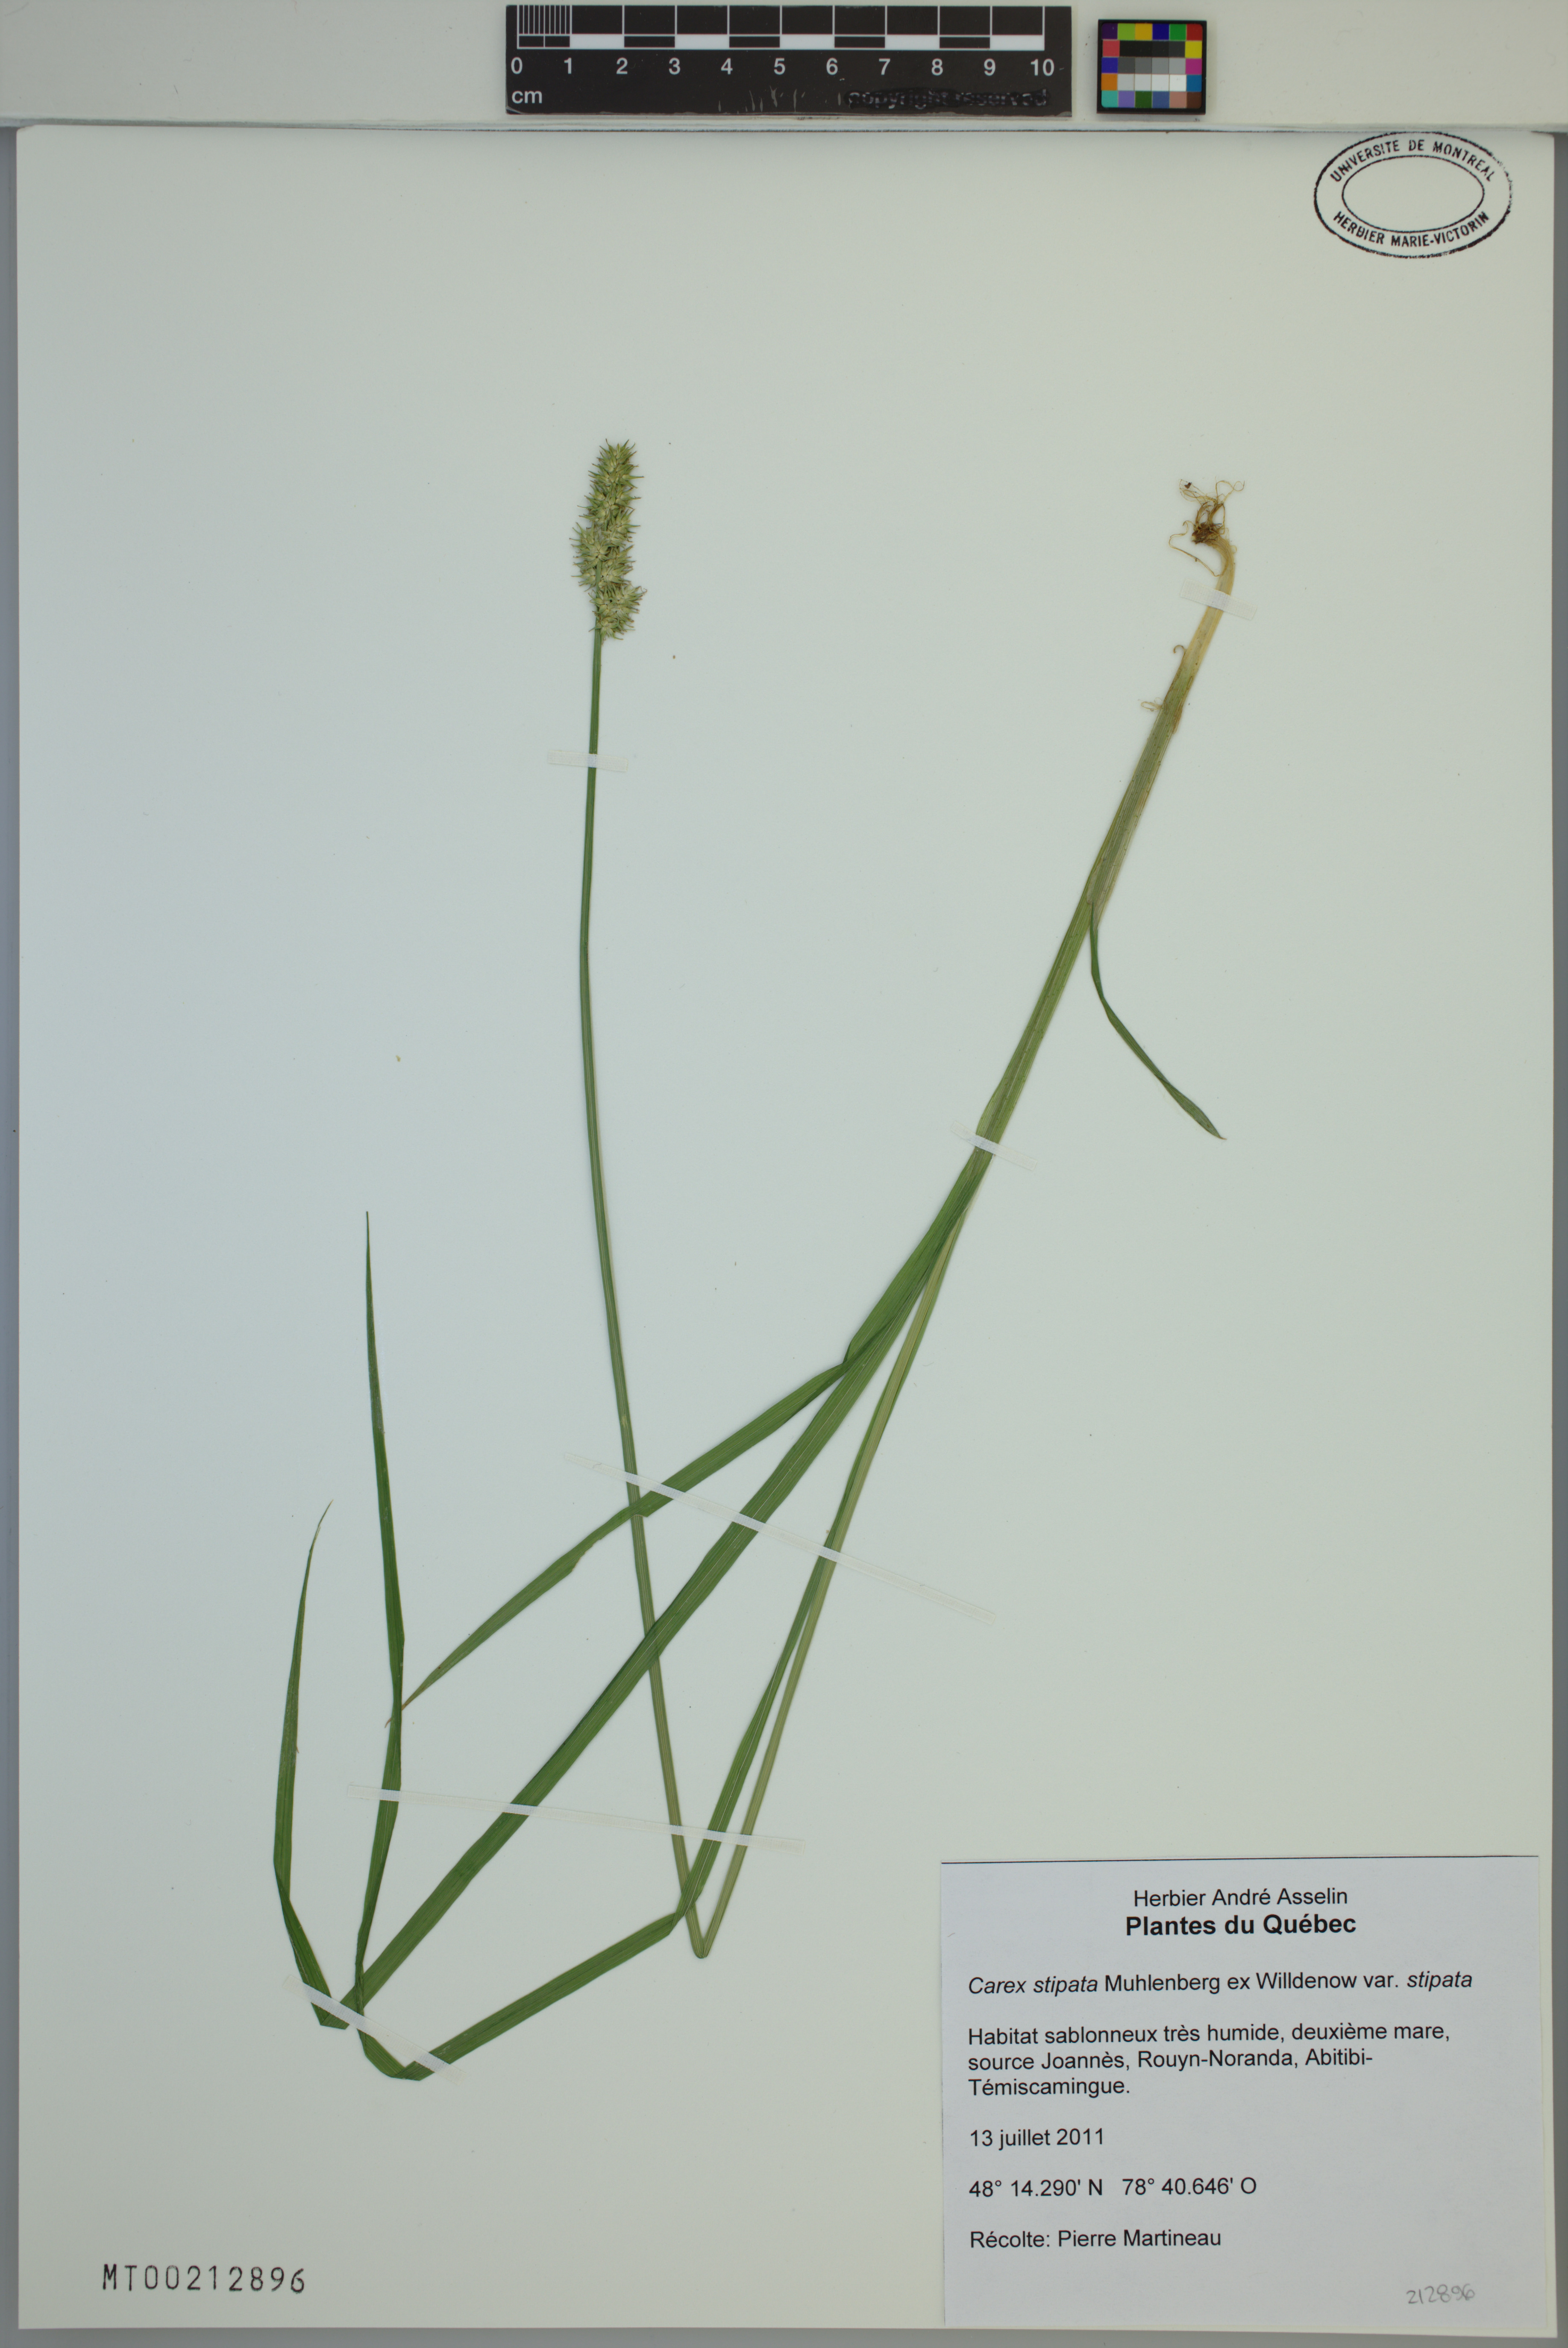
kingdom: Plantae
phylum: Tracheophyta
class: Liliopsida
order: Poales
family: Cyperaceae
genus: Carex
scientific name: Carex stipata
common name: Awl-fruited sedge
